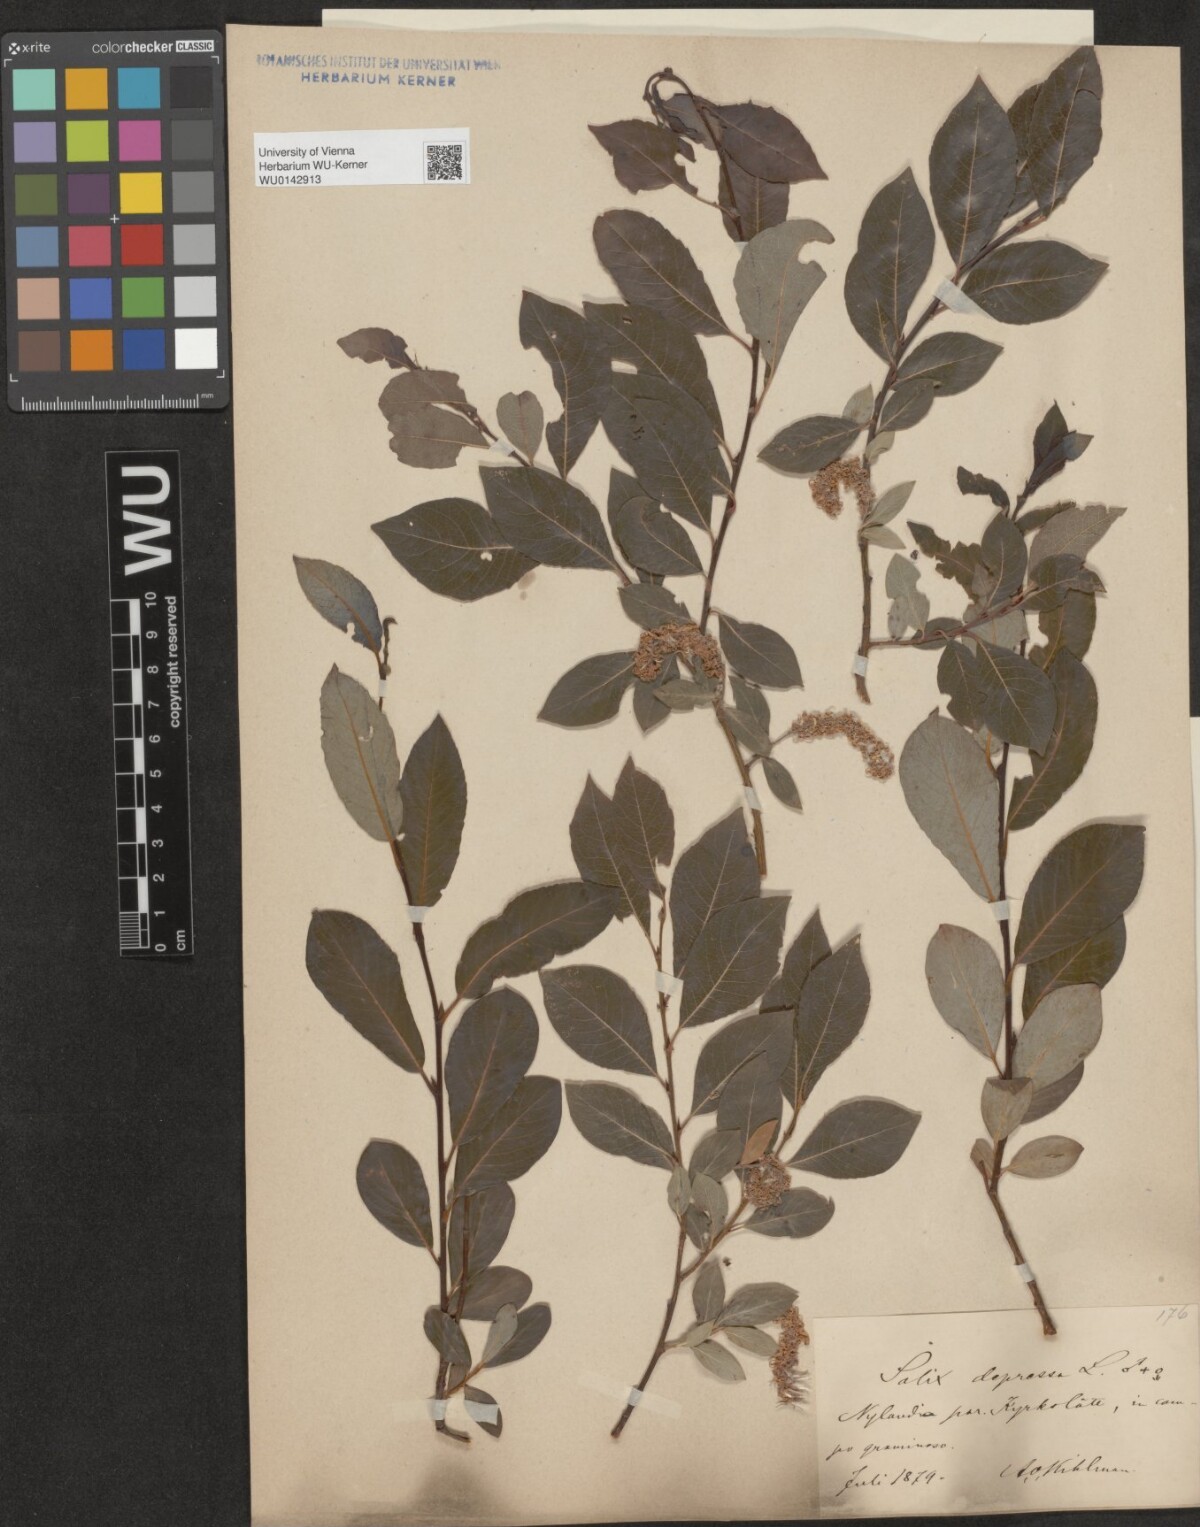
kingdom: Plantae
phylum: Tracheophyta
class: Magnoliopsida
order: Malpighiales
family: Salicaceae
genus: Salix
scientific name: Salix starkeana
